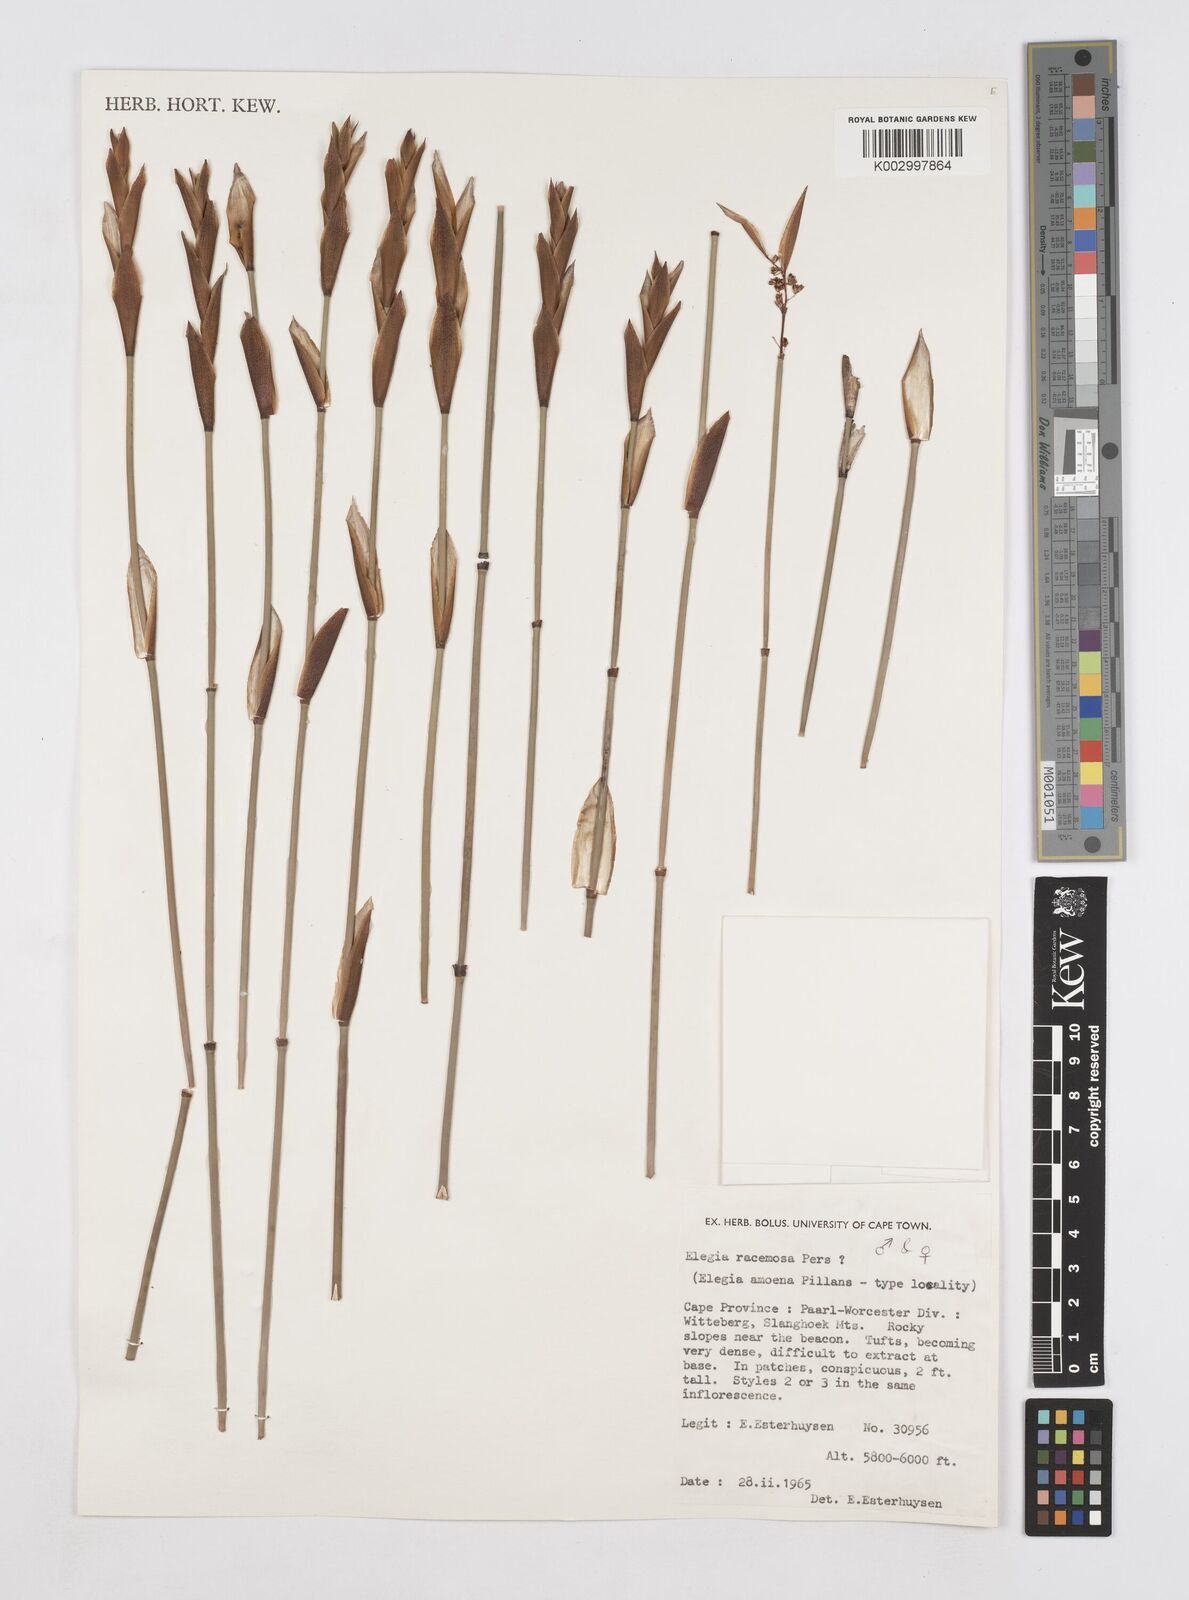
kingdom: Plantae
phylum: Tracheophyta
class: Liliopsida
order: Poales
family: Restionaceae
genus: Elegia
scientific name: Elegia racemosa
